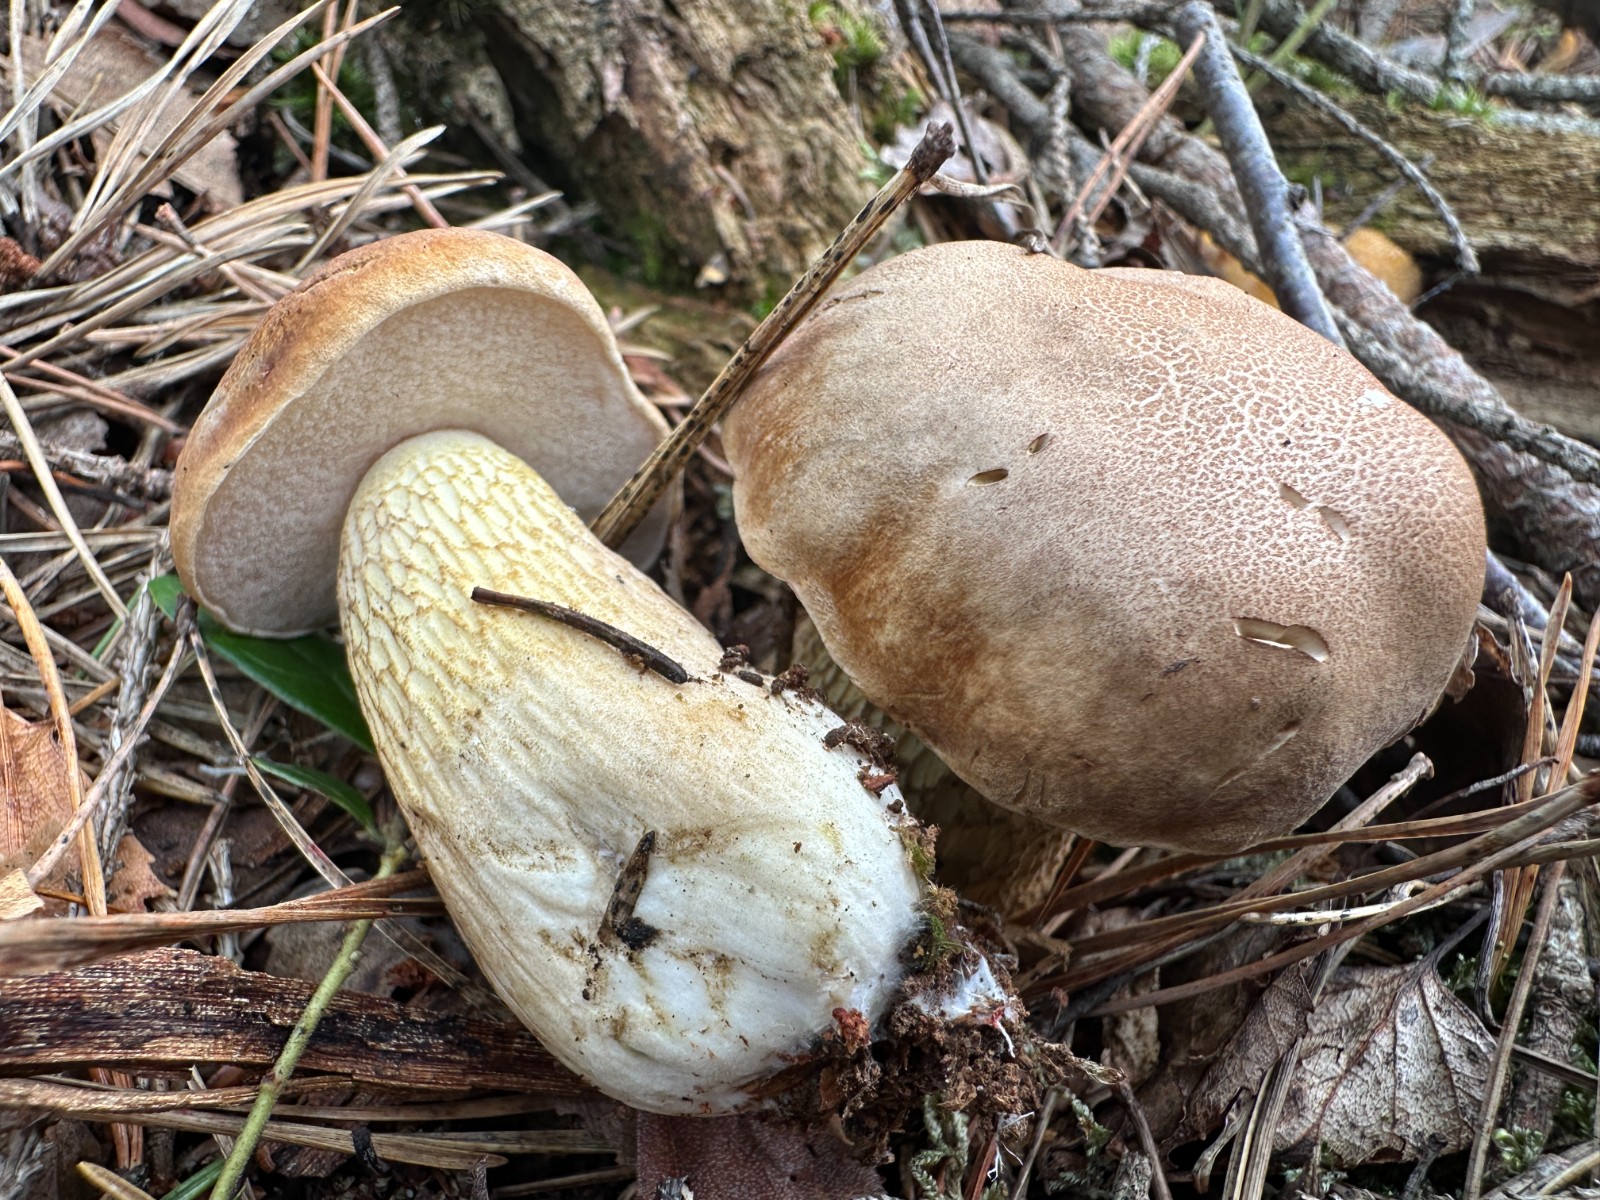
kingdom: Fungi
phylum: Basidiomycota
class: Agaricomycetes
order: Boletales
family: Boletaceae
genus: Tylopilus
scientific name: Tylopilus felleus
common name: galderørhat
